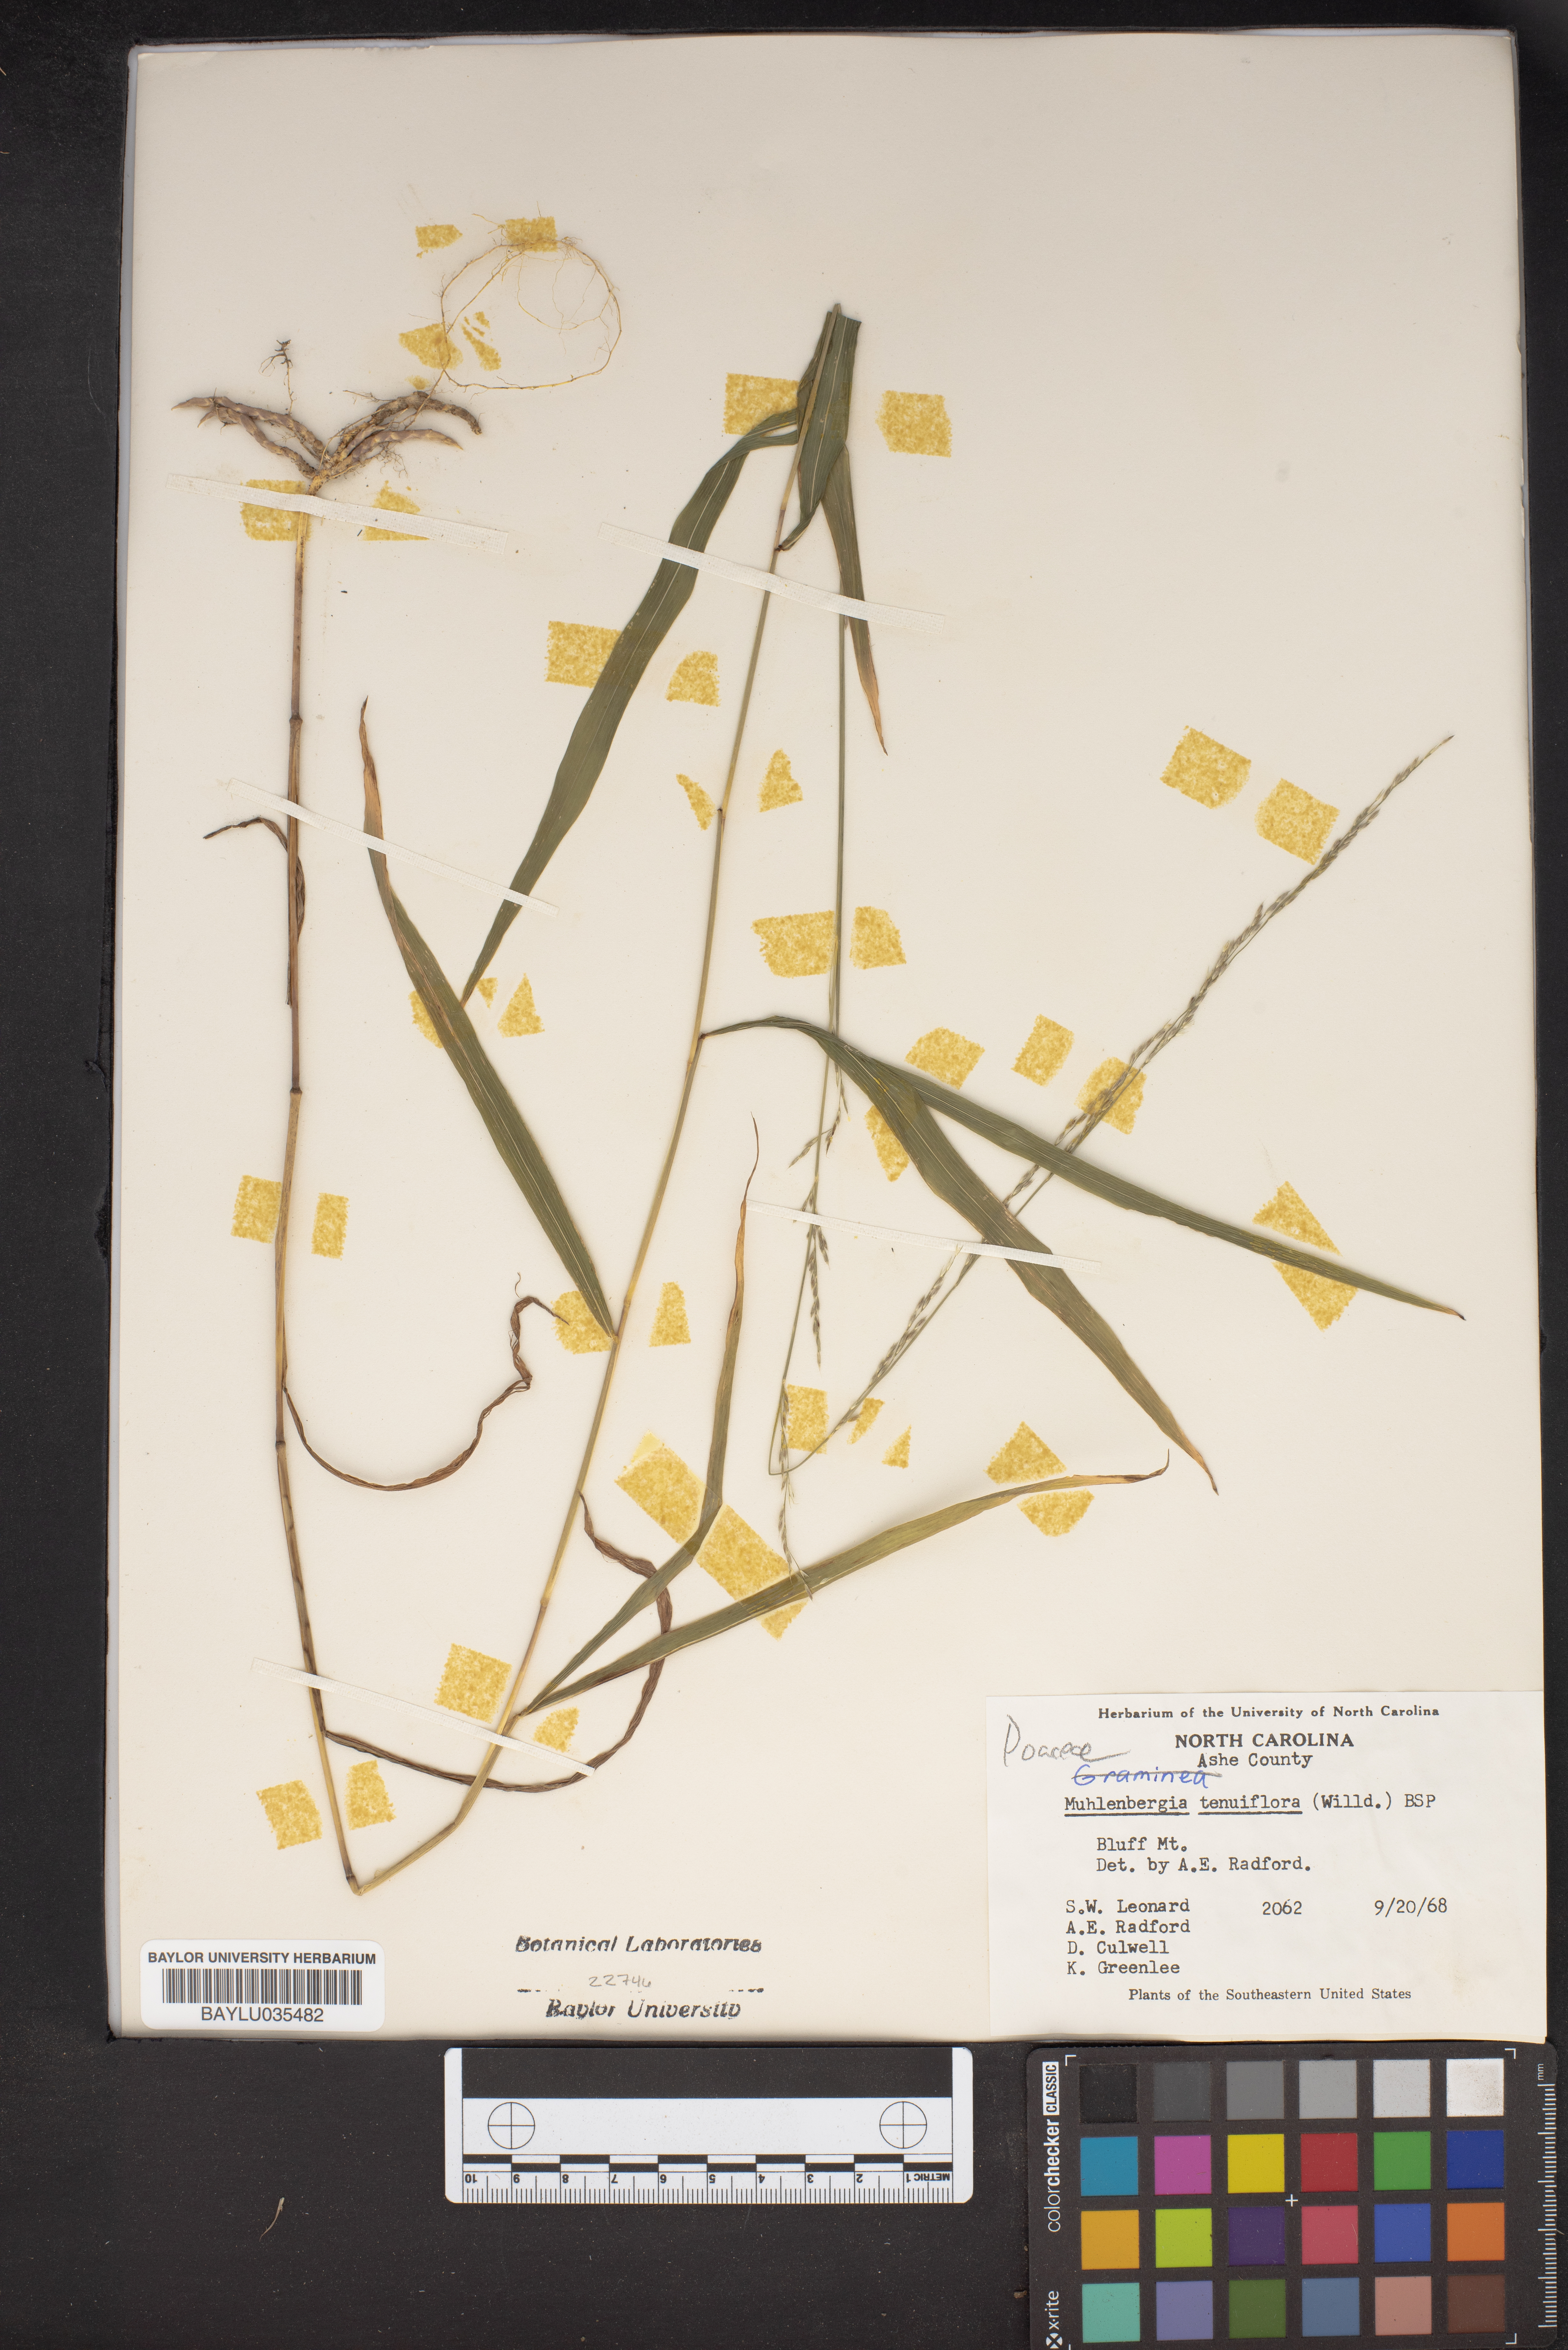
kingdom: Plantae
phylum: Tracheophyta
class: Liliopsida
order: Poales
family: Poaceae
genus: Muhlenbergia
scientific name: Muhlenbergia tenuiflora
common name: Slender muhly
